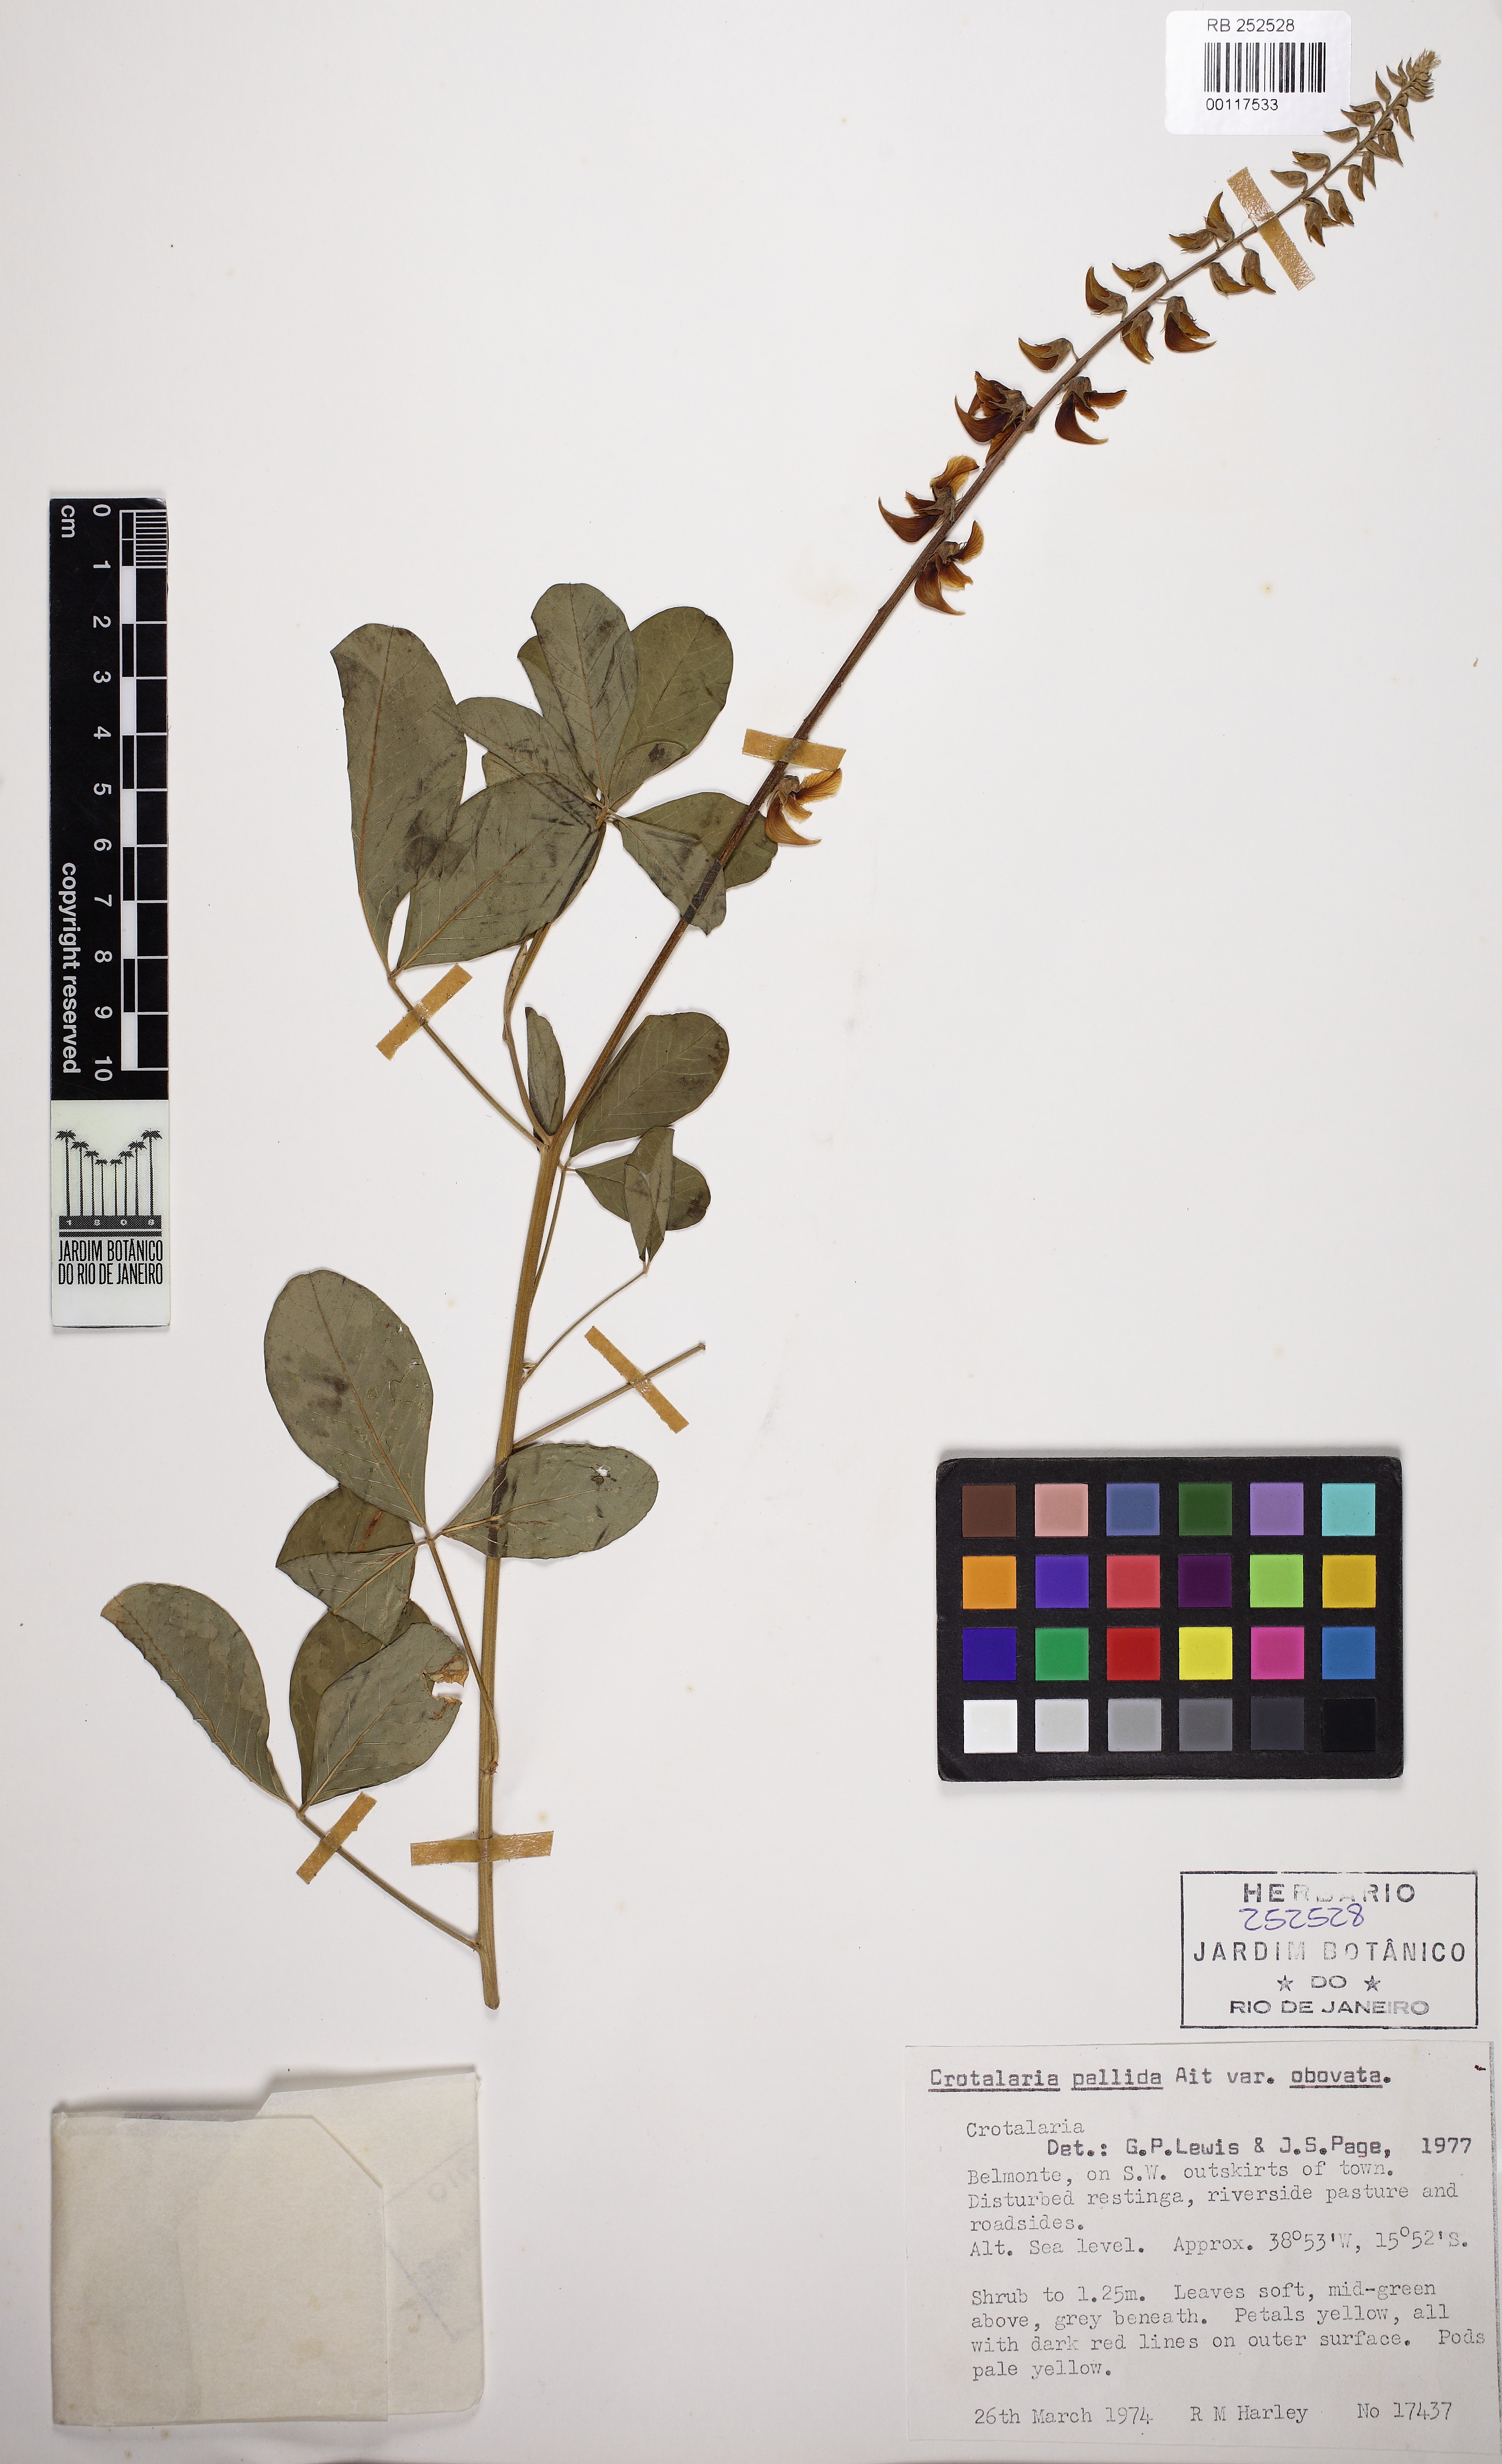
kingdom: Plantae
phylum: Tracheophyta
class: Magnoliopsida
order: Fabales
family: Fabaceae
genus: Crotalaria
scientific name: Crotalaria pallida
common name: Smooth rattlebox
